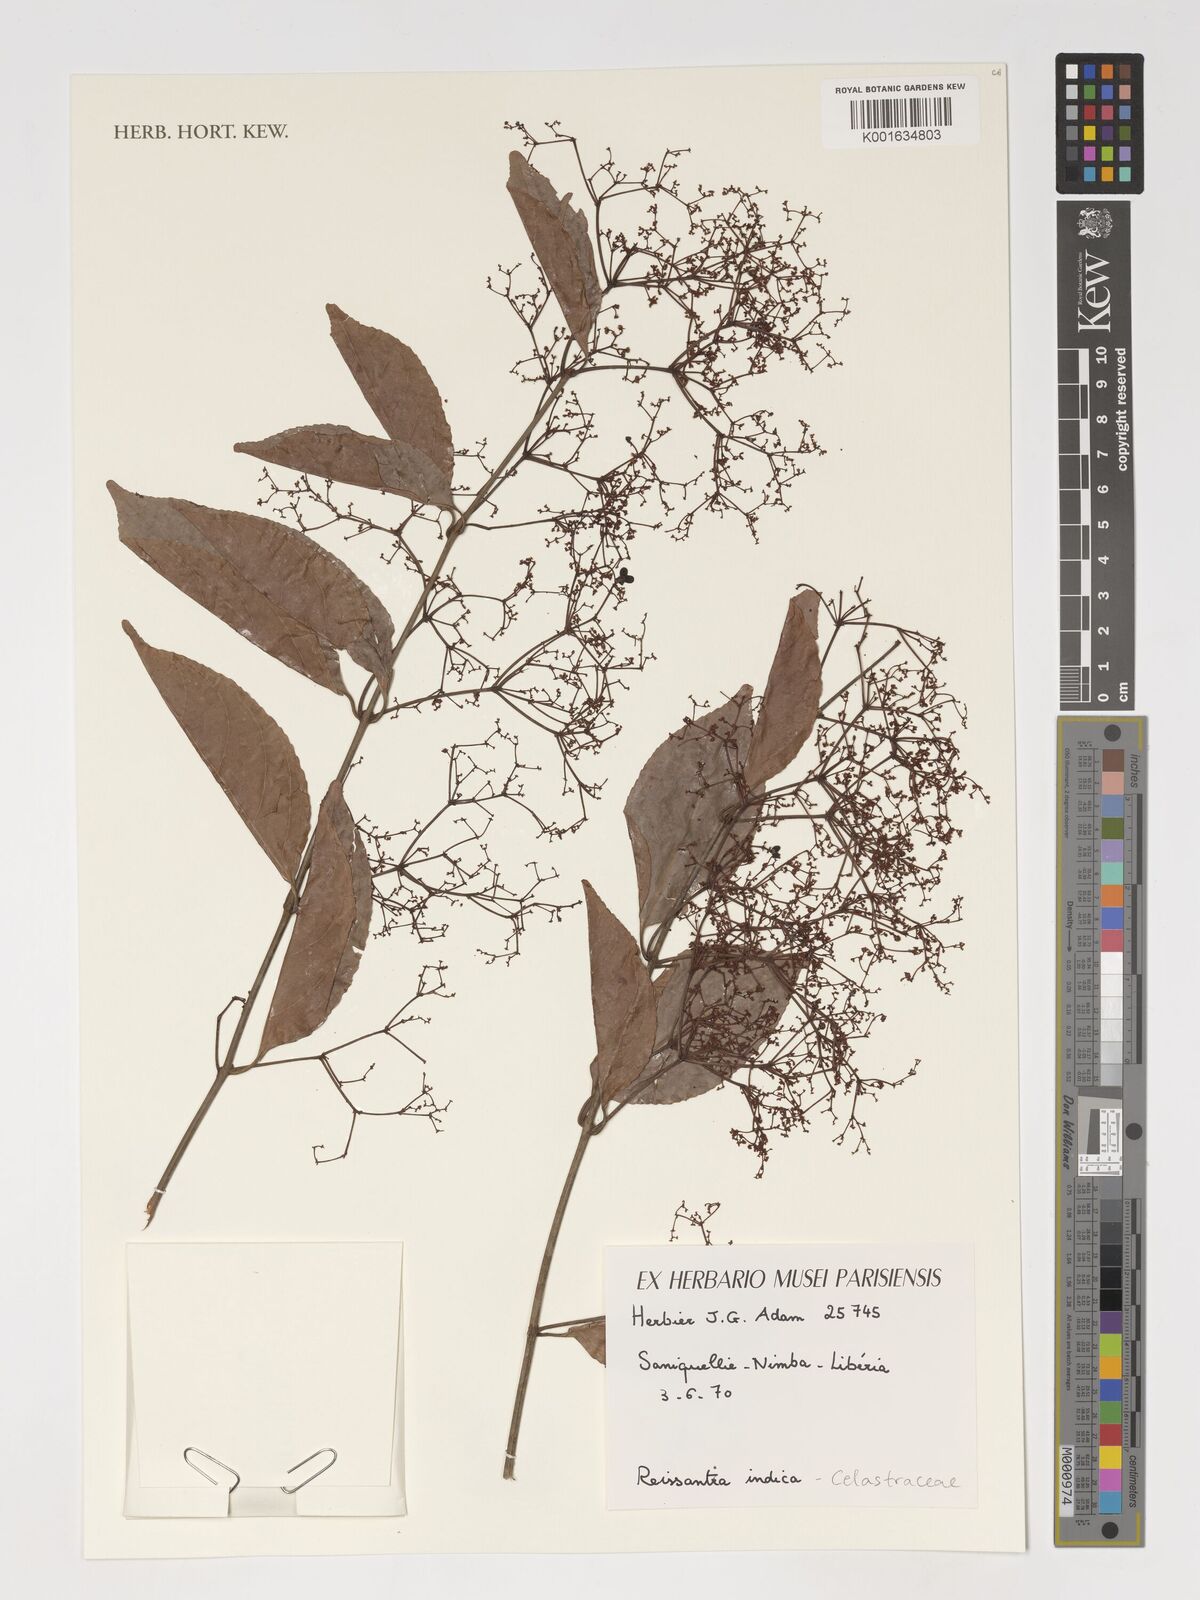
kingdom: Plantae
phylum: Tracheophyta
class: Magnoliopsida
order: Celastrales
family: Celastraceae
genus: Reissantia
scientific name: Reissantia indica
